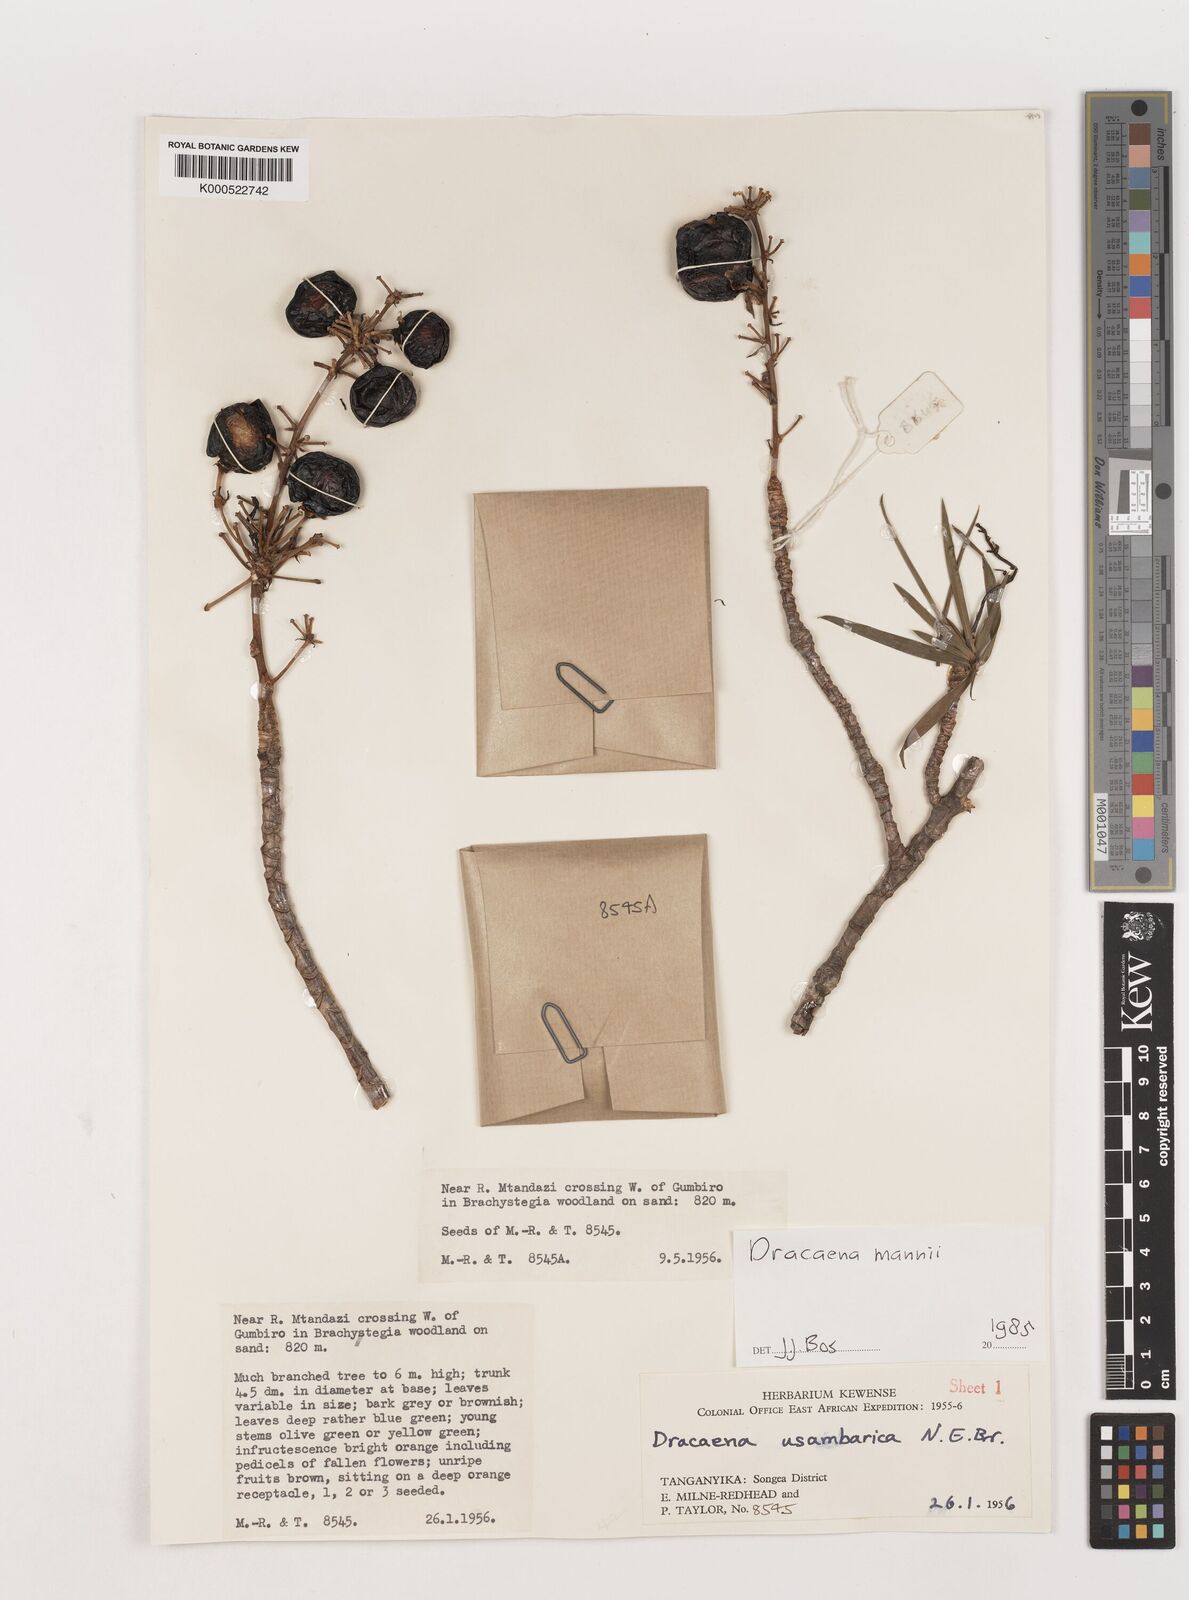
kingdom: Plantae
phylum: Tracheophyta
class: Liliopsida
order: Asparagales
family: Asparagaceae
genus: Dracaena
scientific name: Dracaena mannii
